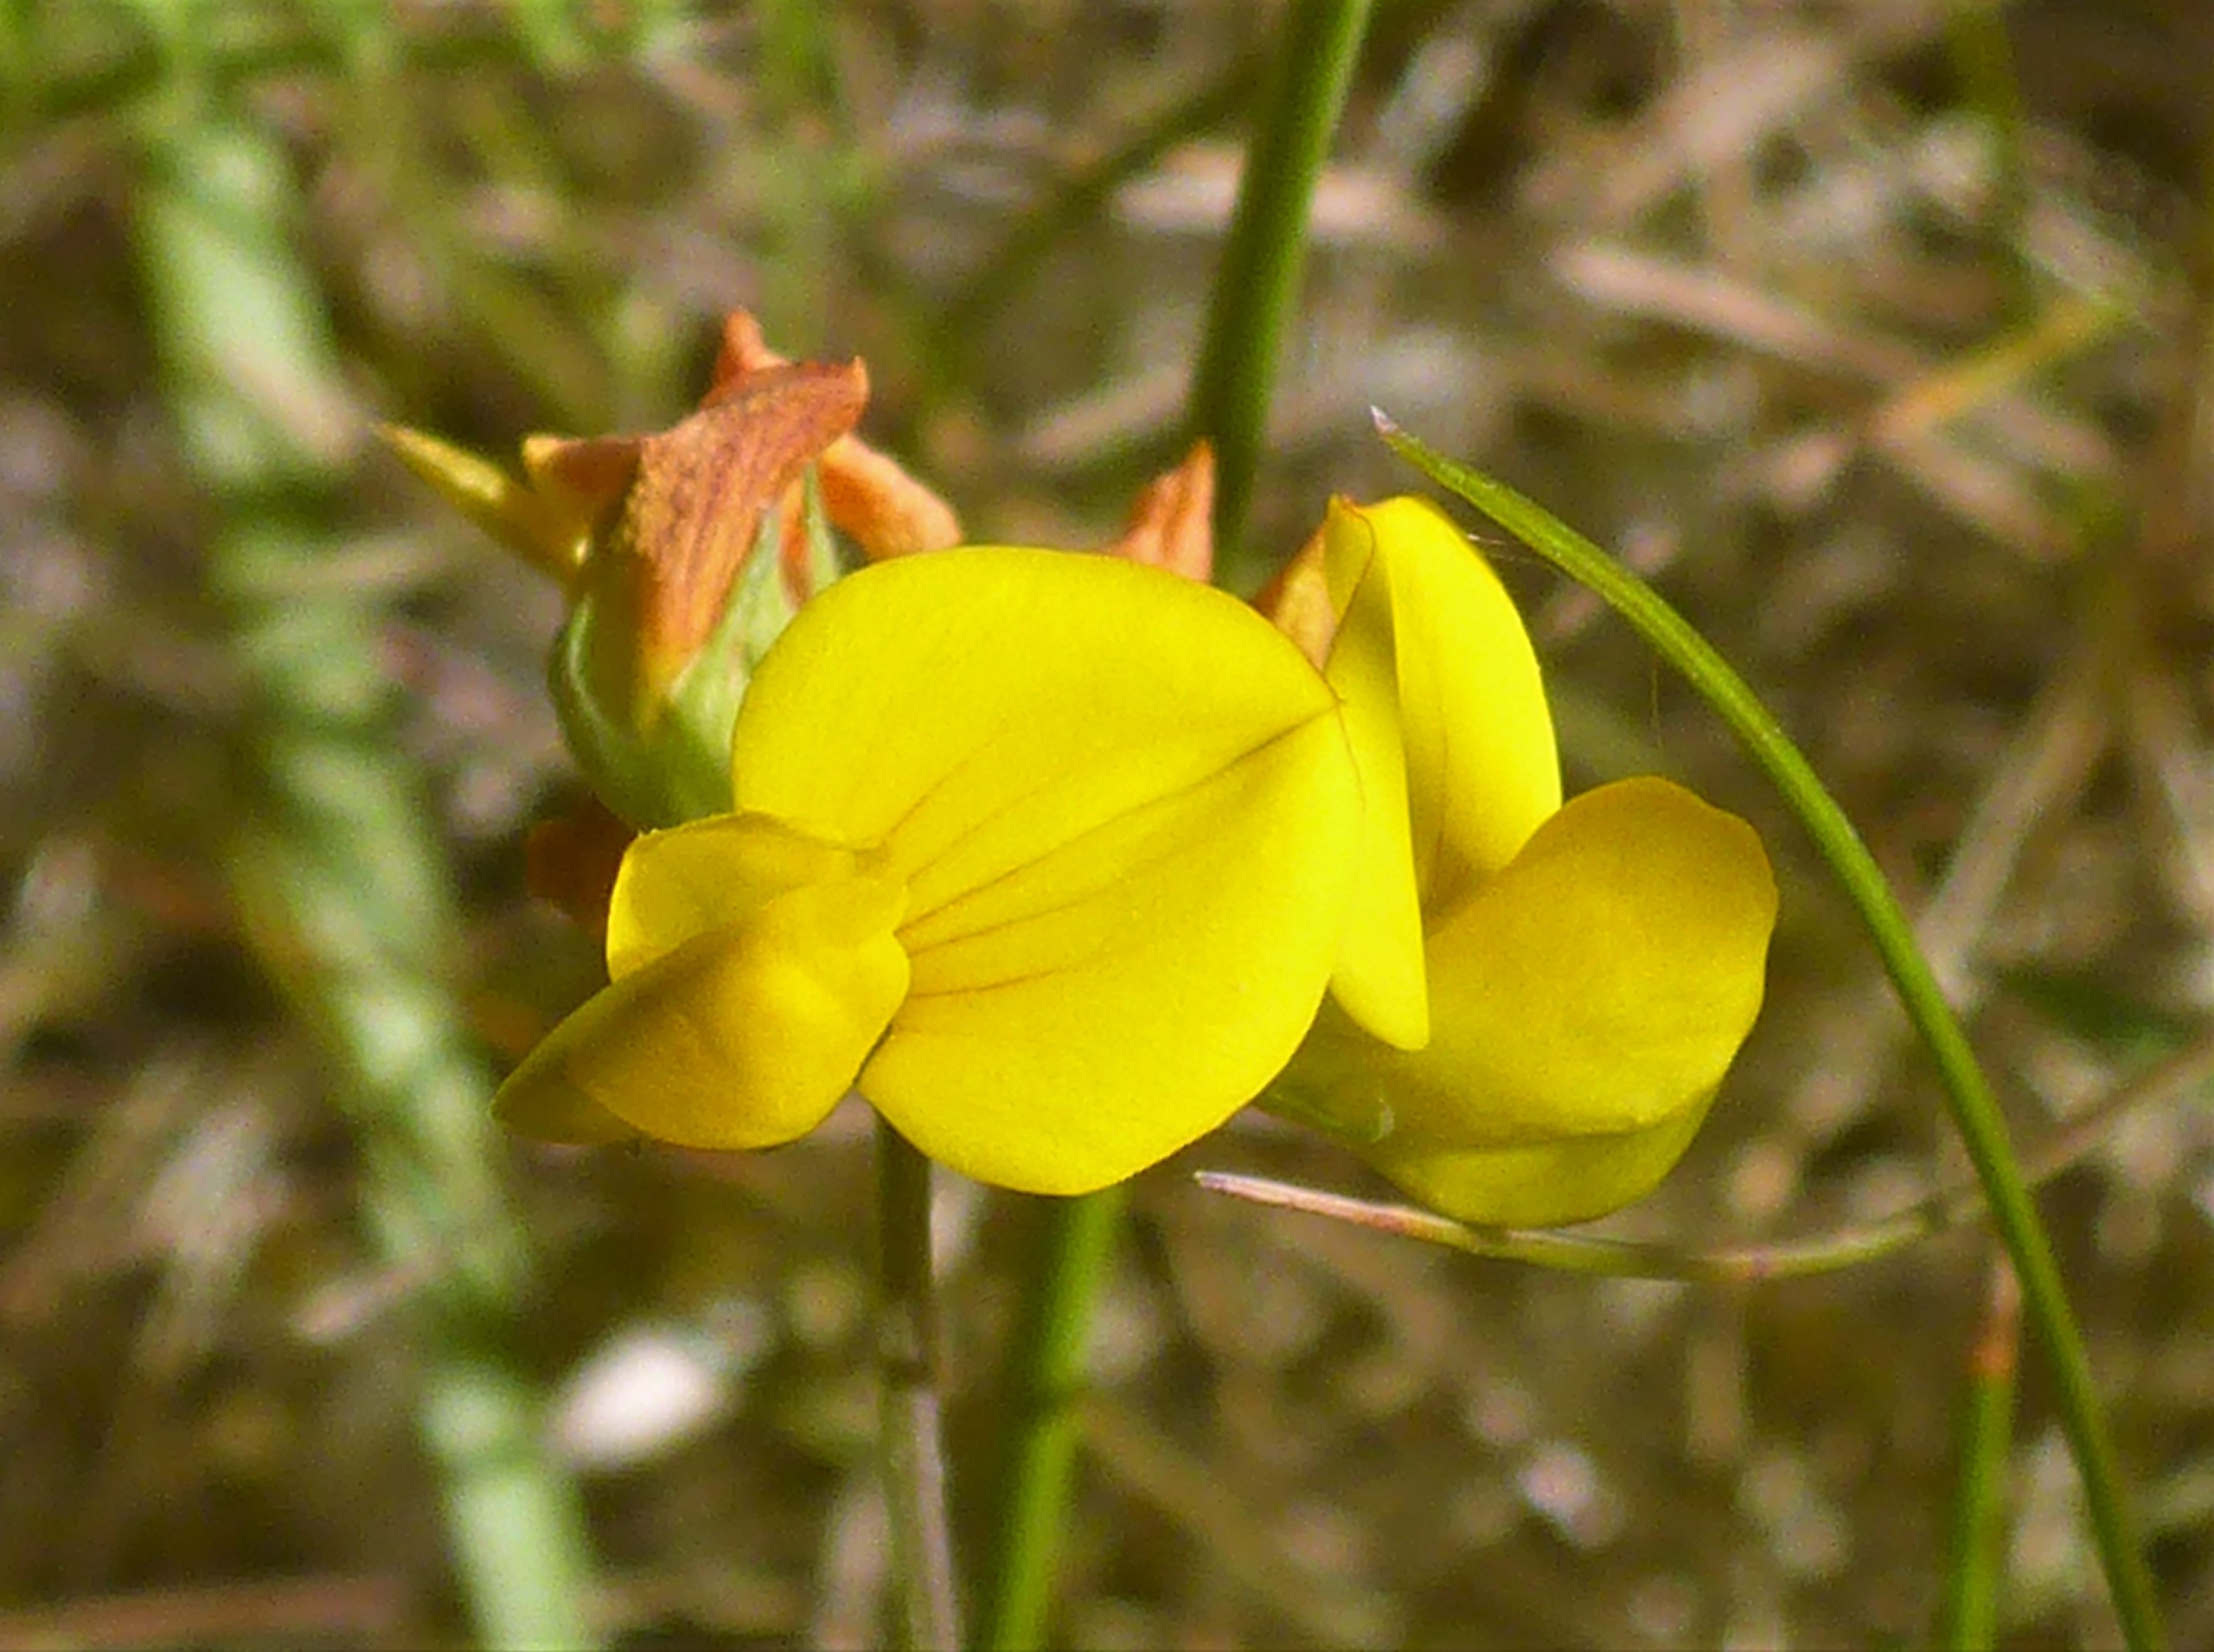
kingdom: Plantae
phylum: Tracheophyta
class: Magnoliopsida
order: Fabales
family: Fabaceae
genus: Lotus
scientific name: Lotus corniculatus
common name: Almindelig kællingetand
